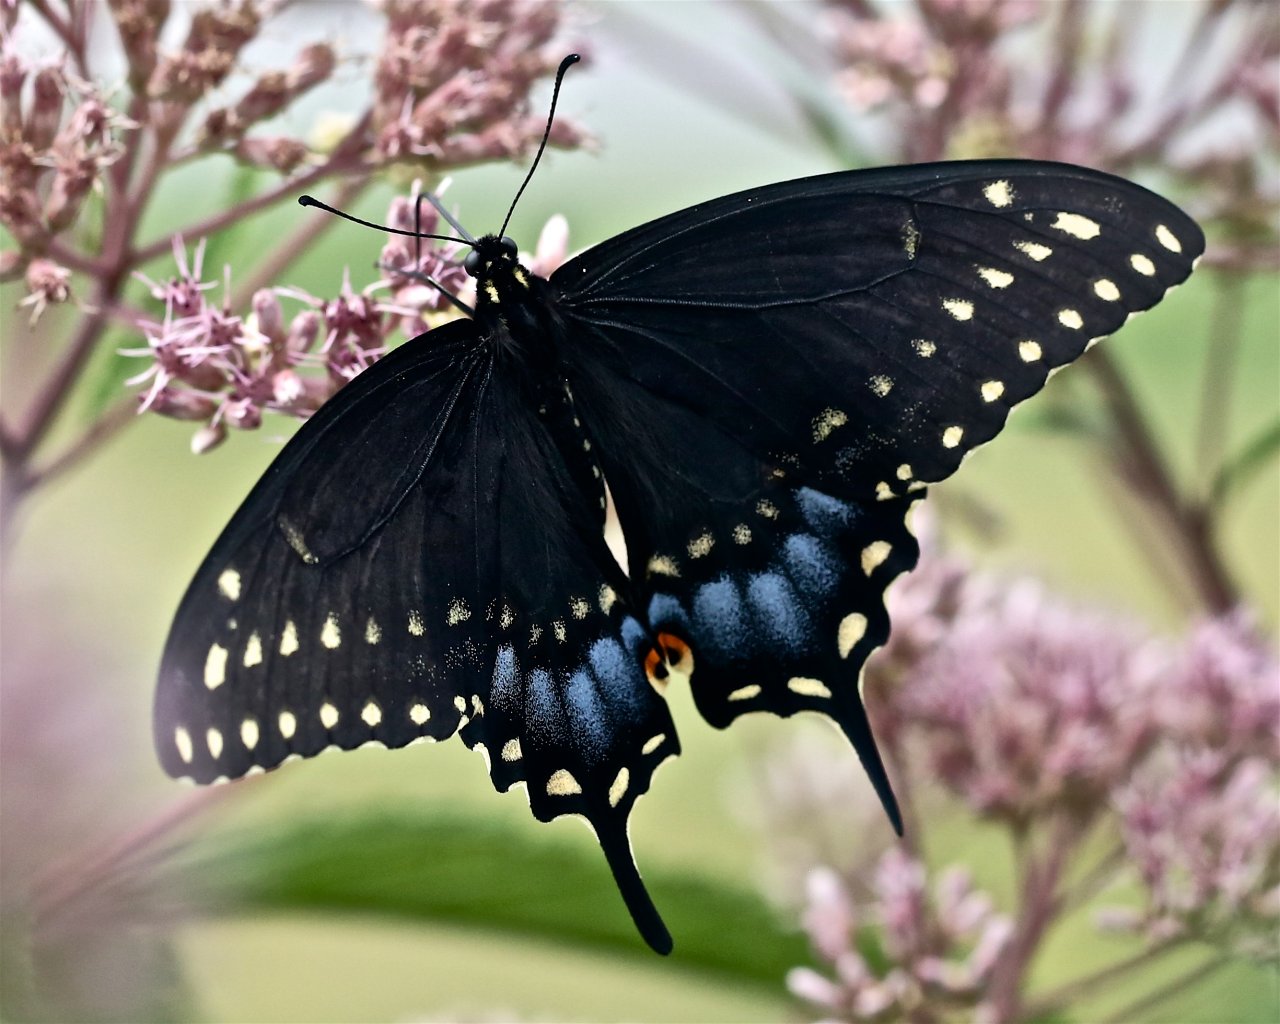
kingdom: Animalia
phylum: Arthropoda
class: Insecta
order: Lepidoptera
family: Papilionidae
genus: Papilio
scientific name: Papilio polyxenes
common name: Black Swallowtail
